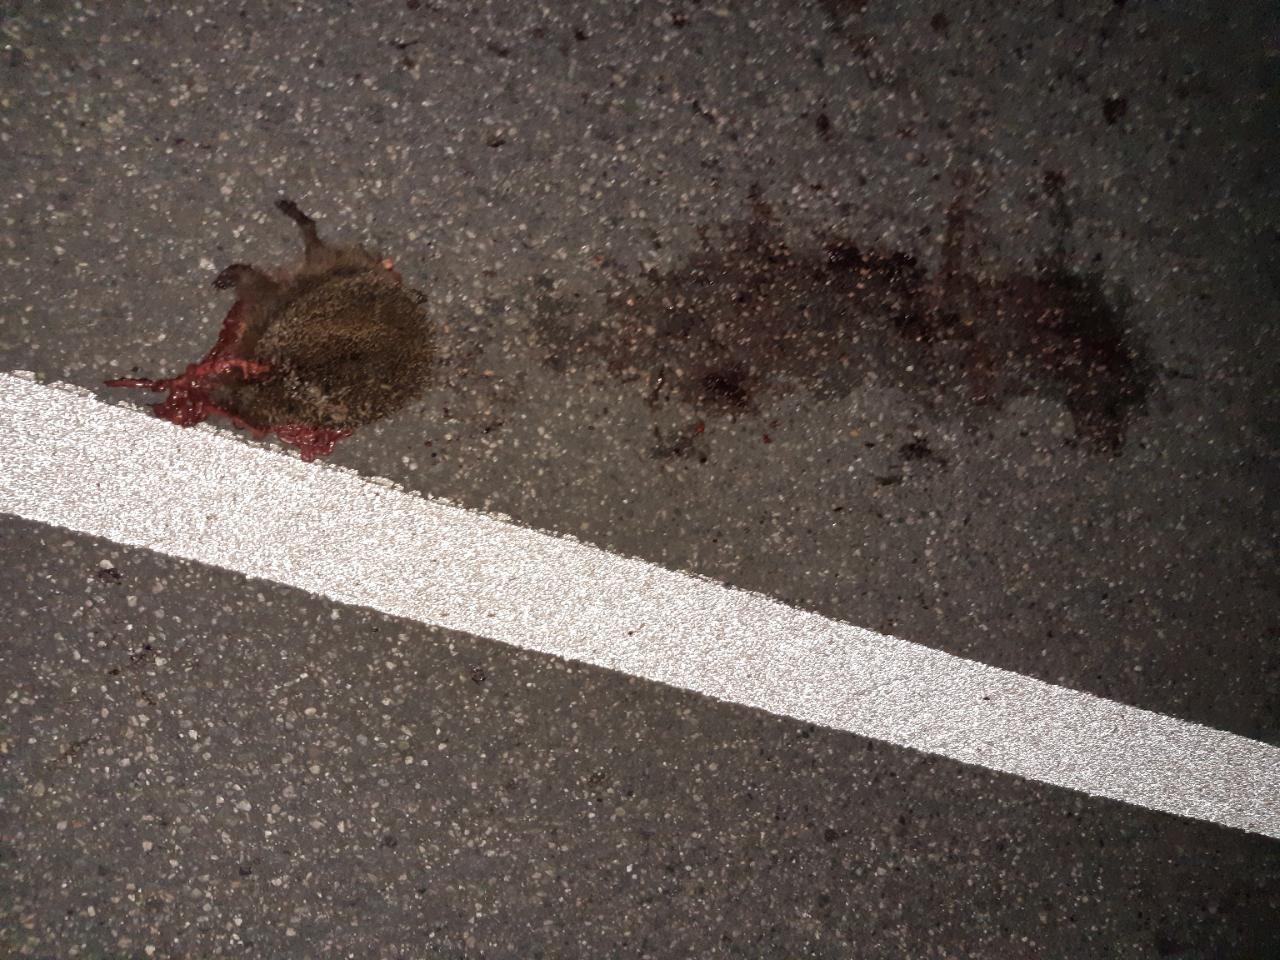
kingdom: Animalia
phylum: Chordata
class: Mammalia
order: Erinaceomorpha
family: Erinaceidae
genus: Erinaceus
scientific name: Erinaceus
